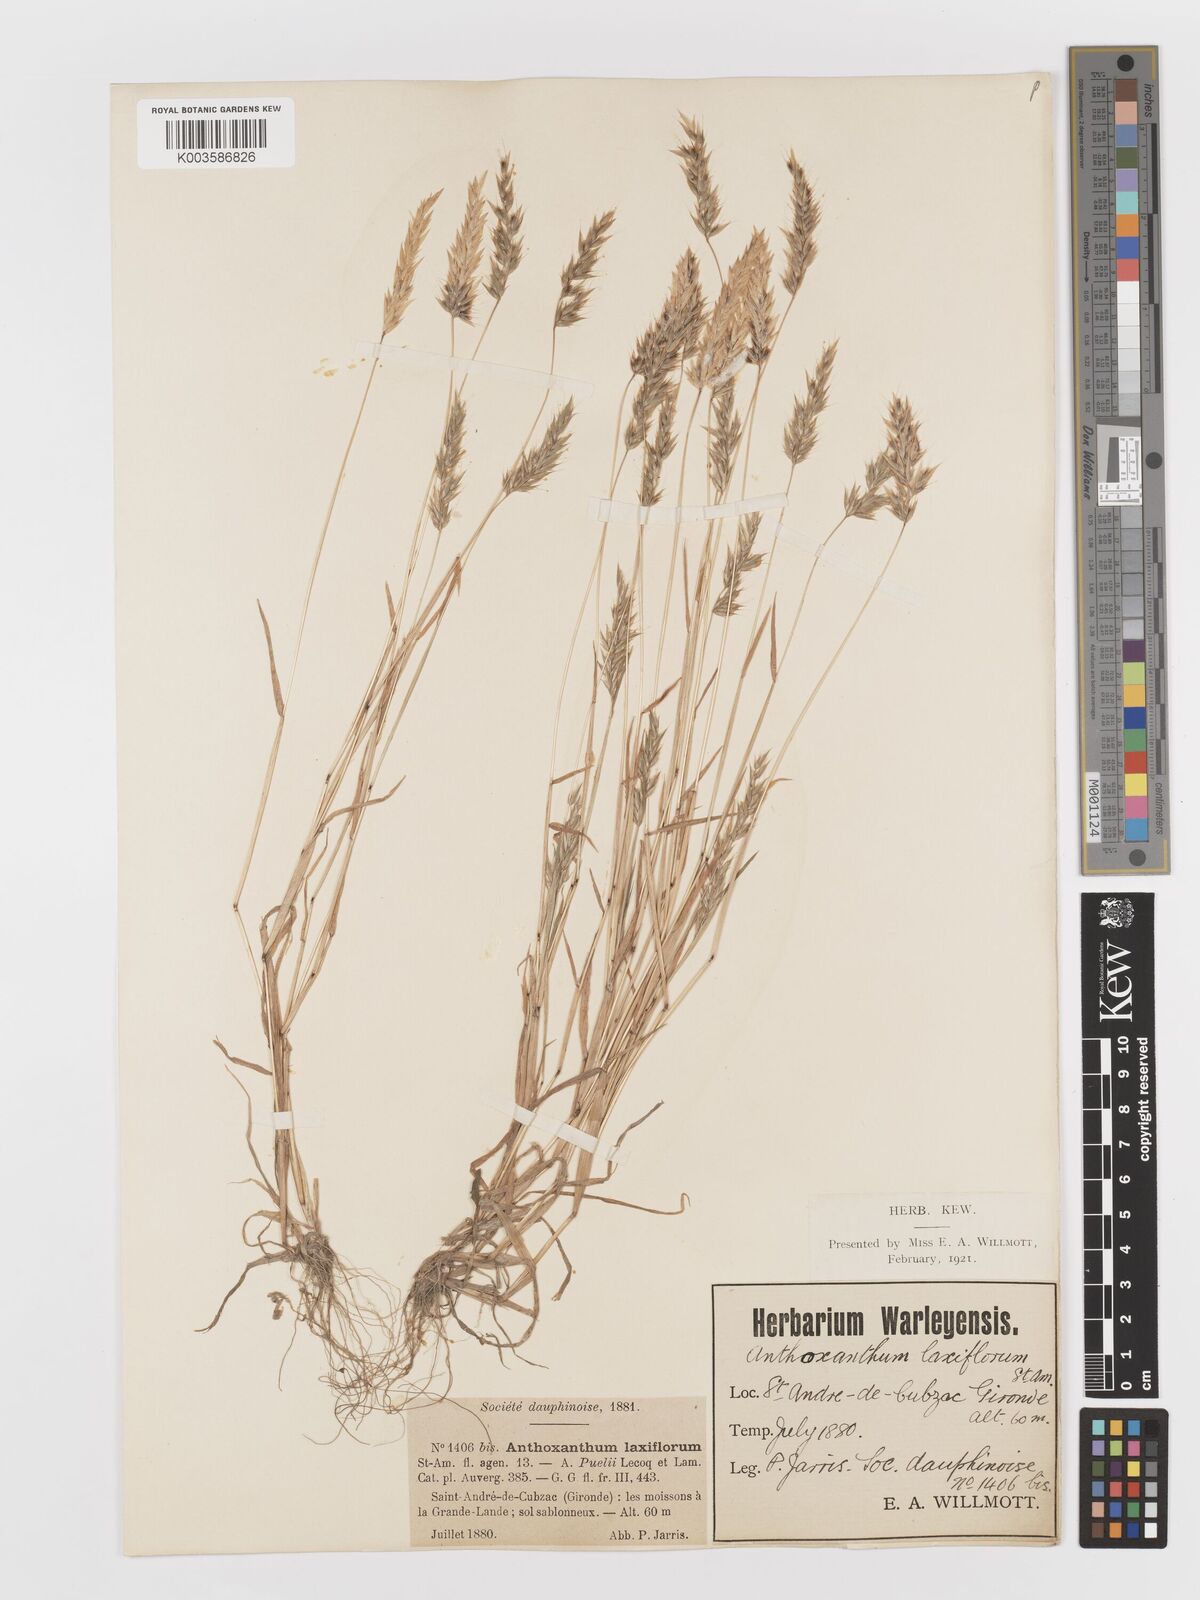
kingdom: Plantae
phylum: Tracheophyta
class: Liliopsida
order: Poales
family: Poaceae
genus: Anthoxanthum
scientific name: Anthoxanthum
